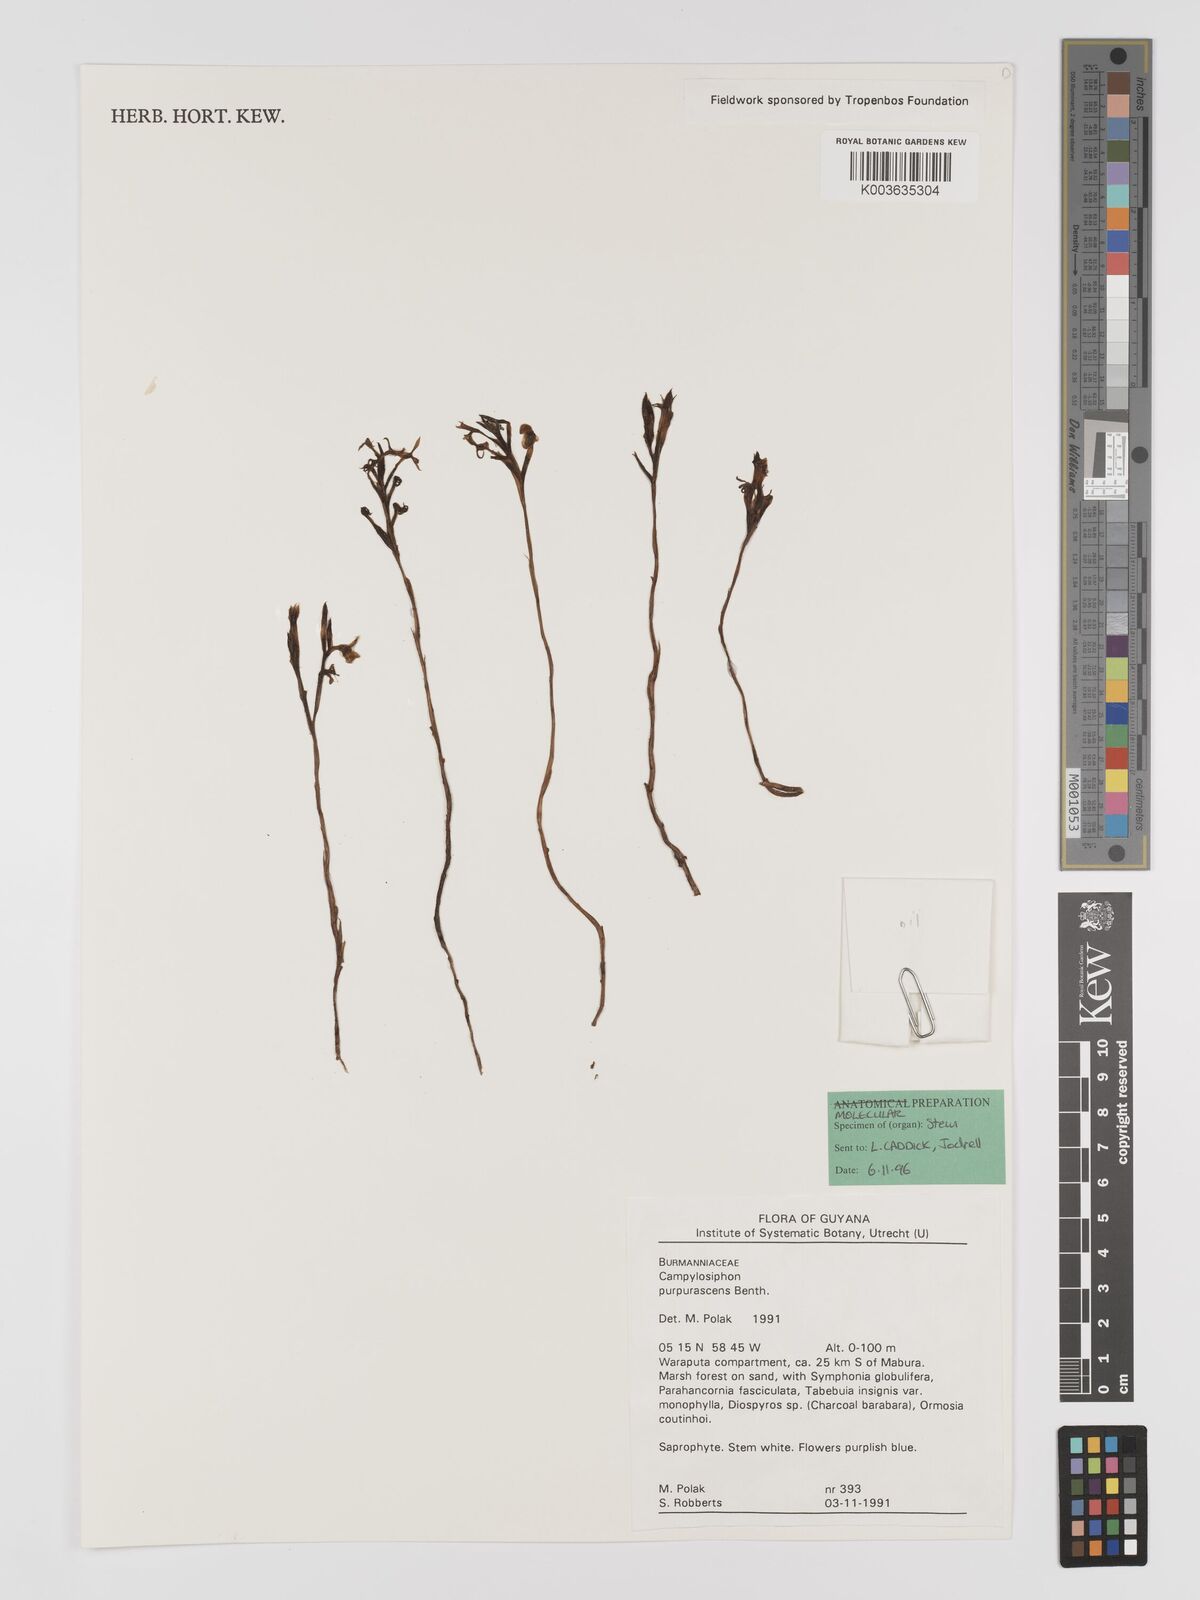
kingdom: Plantae
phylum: Tracheophyta
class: Liliopsida
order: Dioscoreales
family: Burmanniaceae
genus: Campylosiphon
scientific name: Campylosiphon purpurascens
